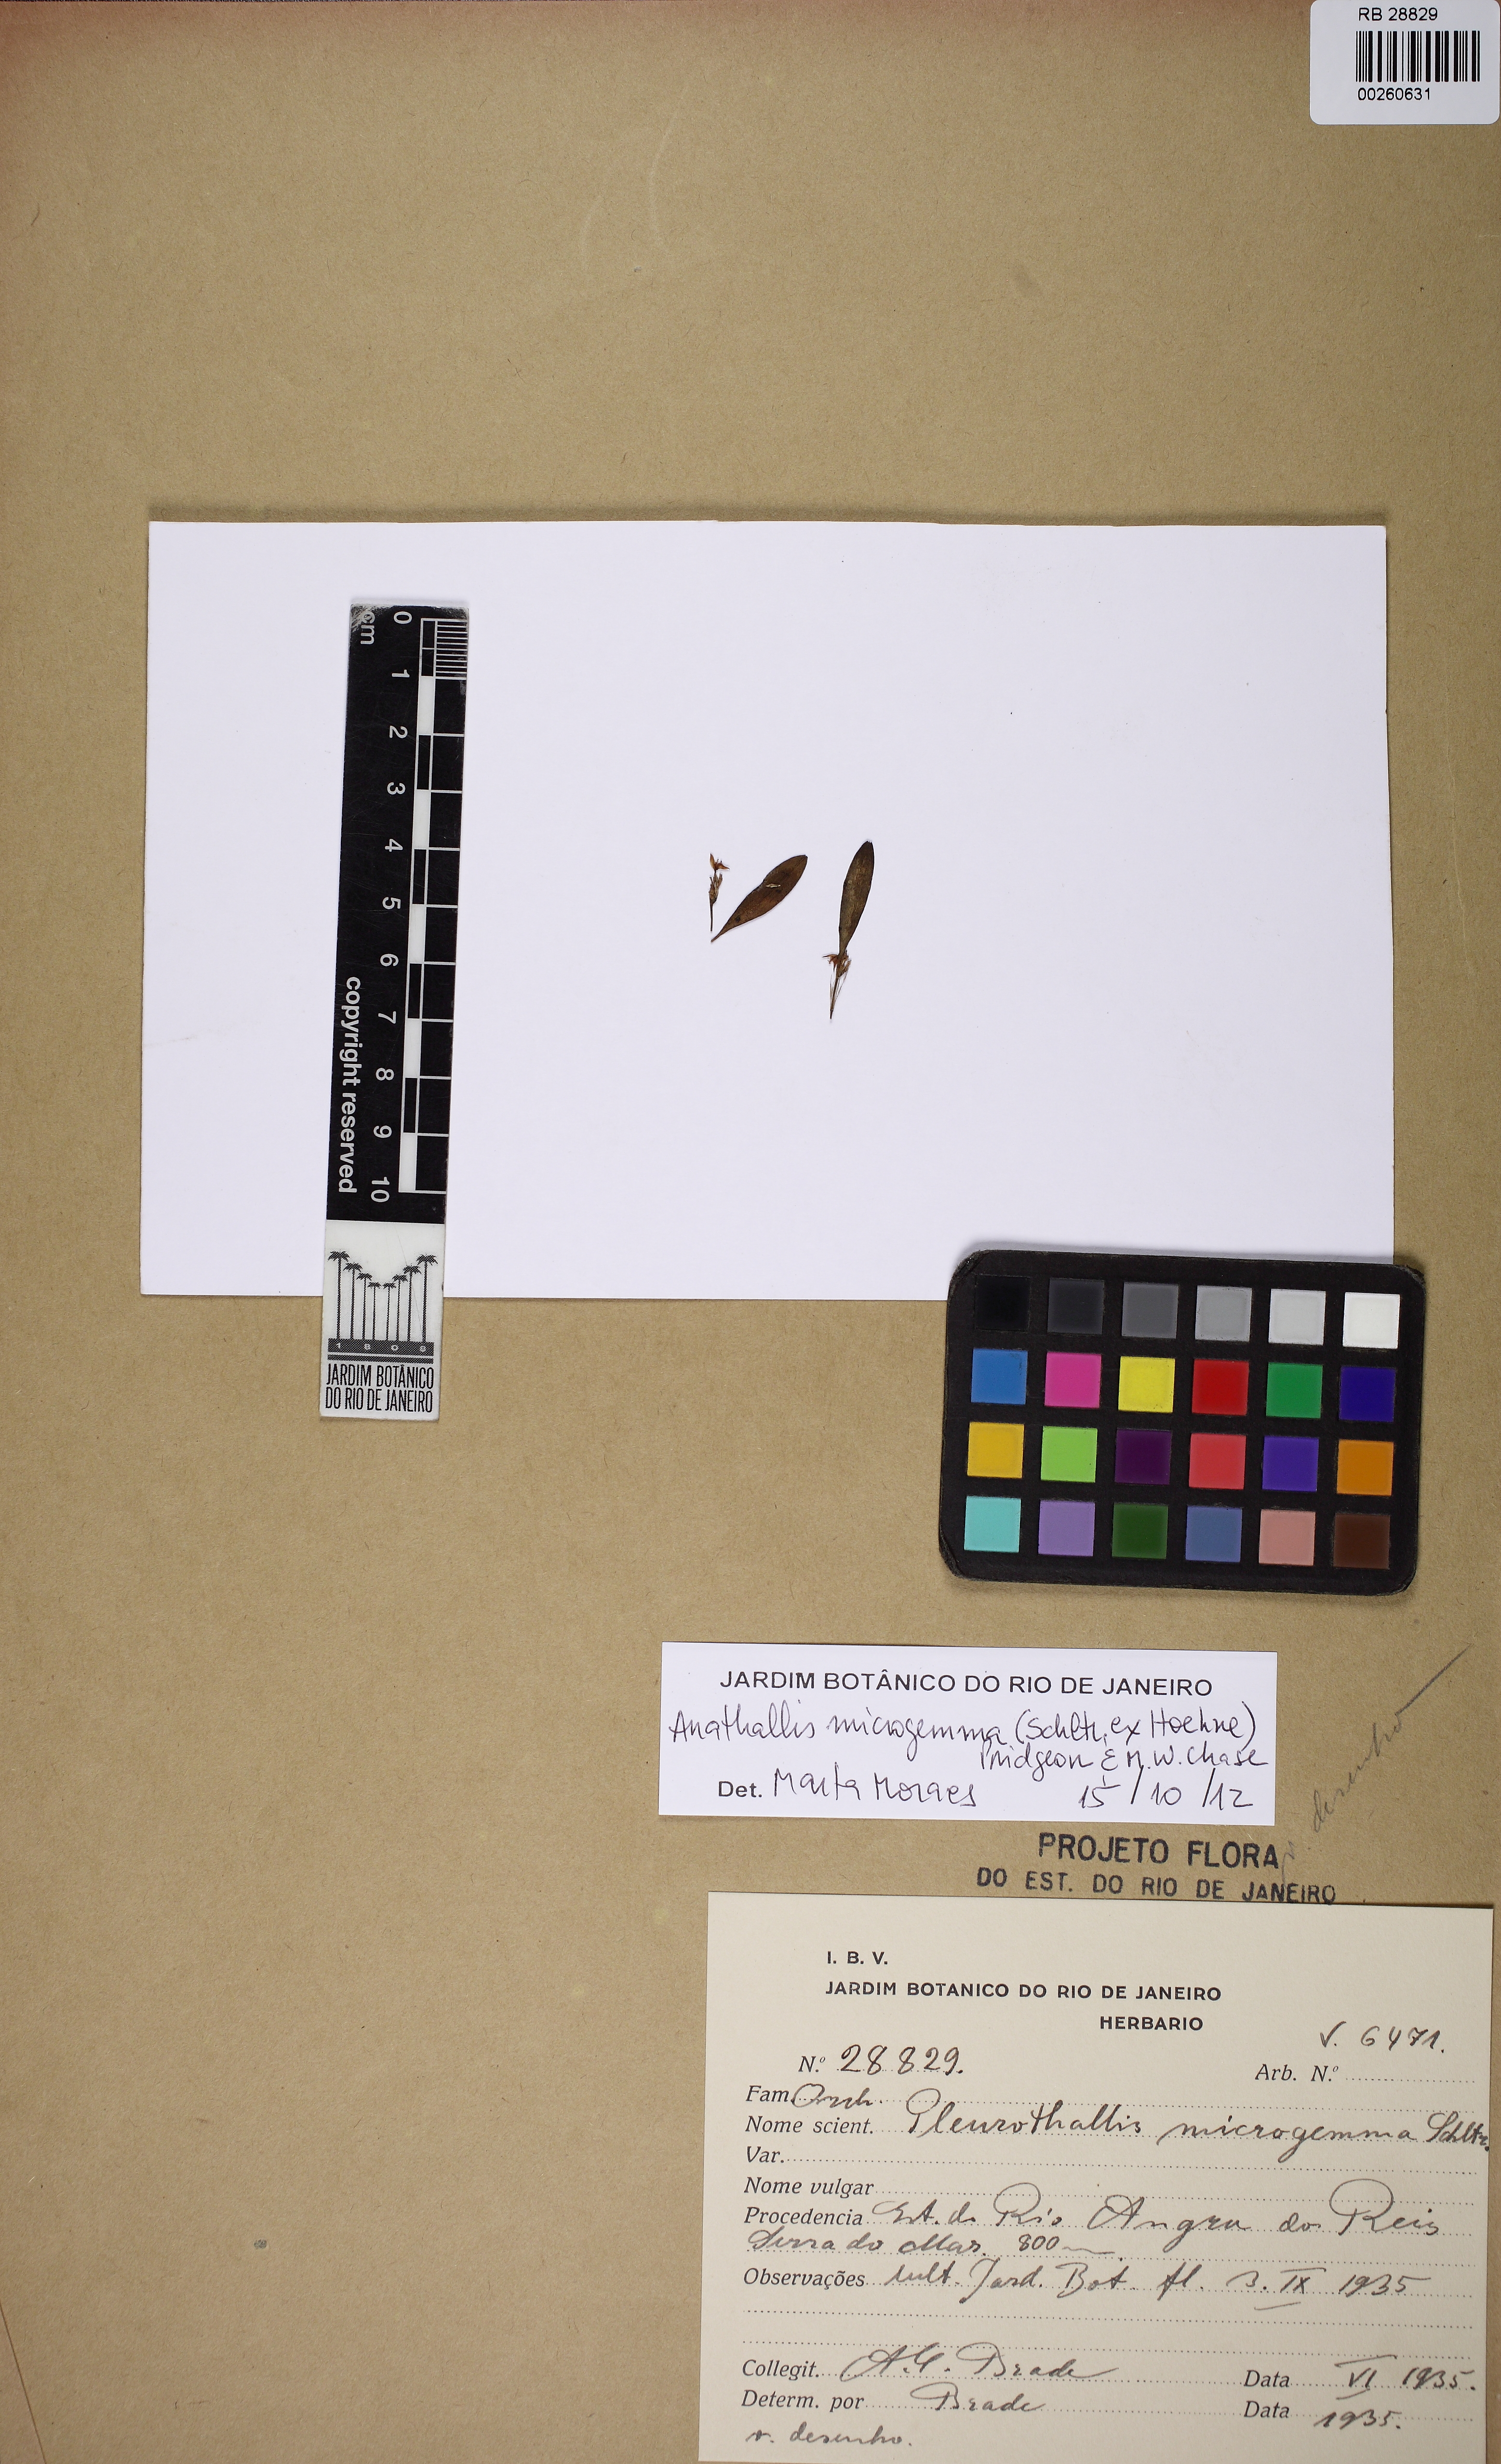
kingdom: Plantae
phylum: Tracheophyta
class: Liliopsida
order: Asparagales
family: Orchidaceae
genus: Anathallis
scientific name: Anathallis microphyta
